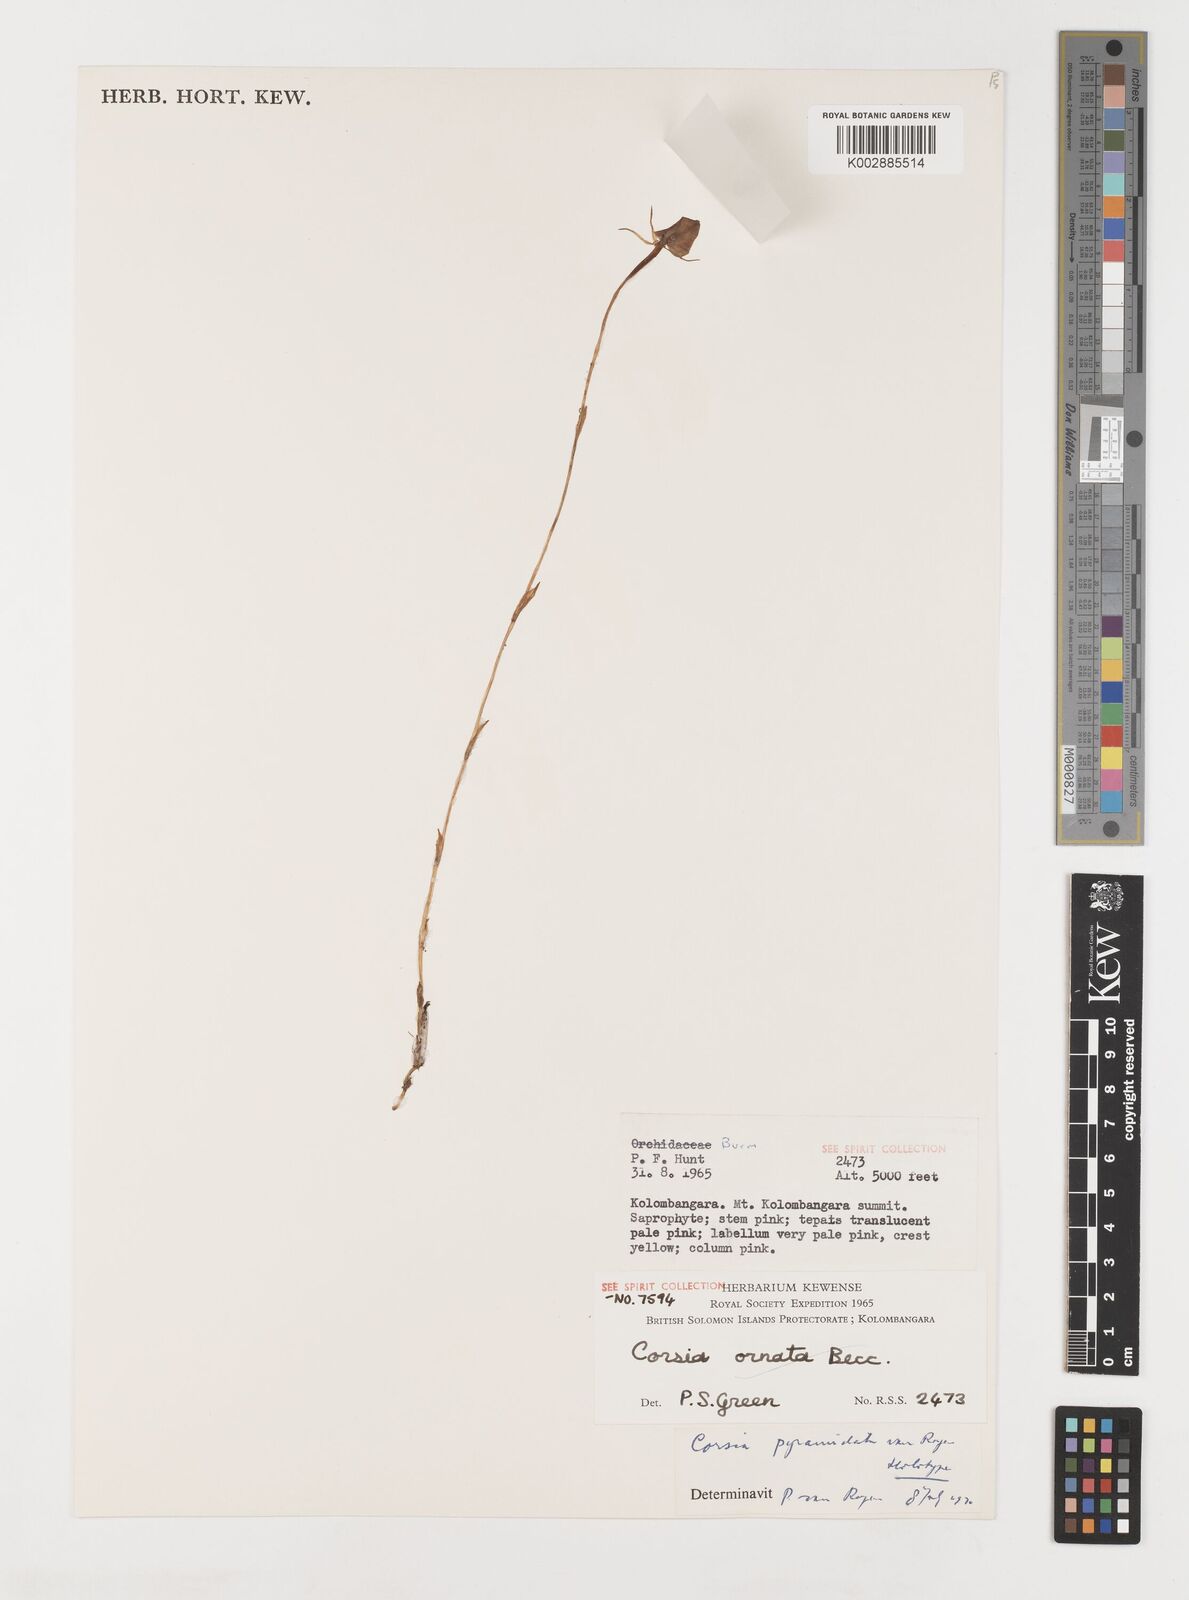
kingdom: Plantae
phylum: Tracheophyta
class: Liliopsida
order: Liliales
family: Corsiaceae
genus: Corsia
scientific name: Corsia pyramidata
